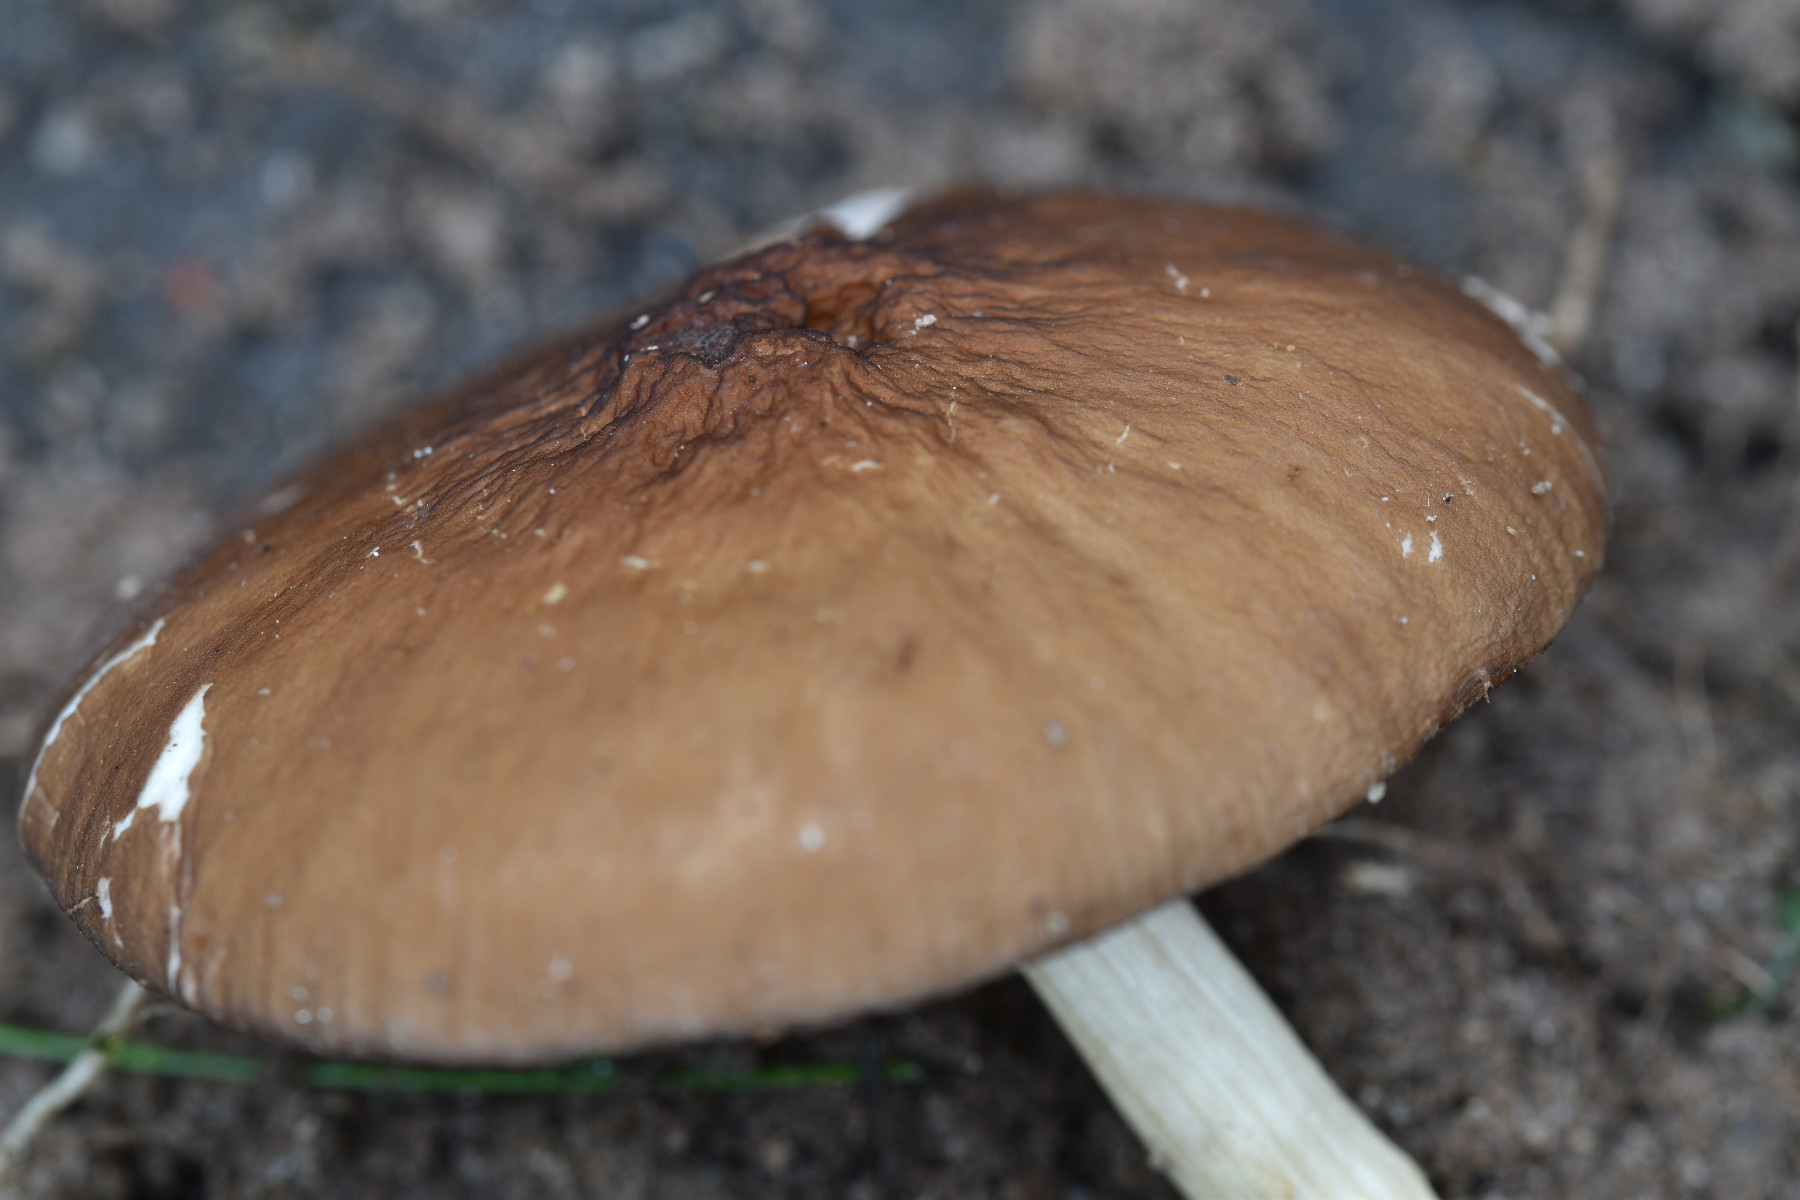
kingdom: Fungi
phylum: Basidiomycota
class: Agaricomycetes
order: Agaricales
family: Pluteaceae
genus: Pluteus
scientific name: Pluteus phlebophorus
